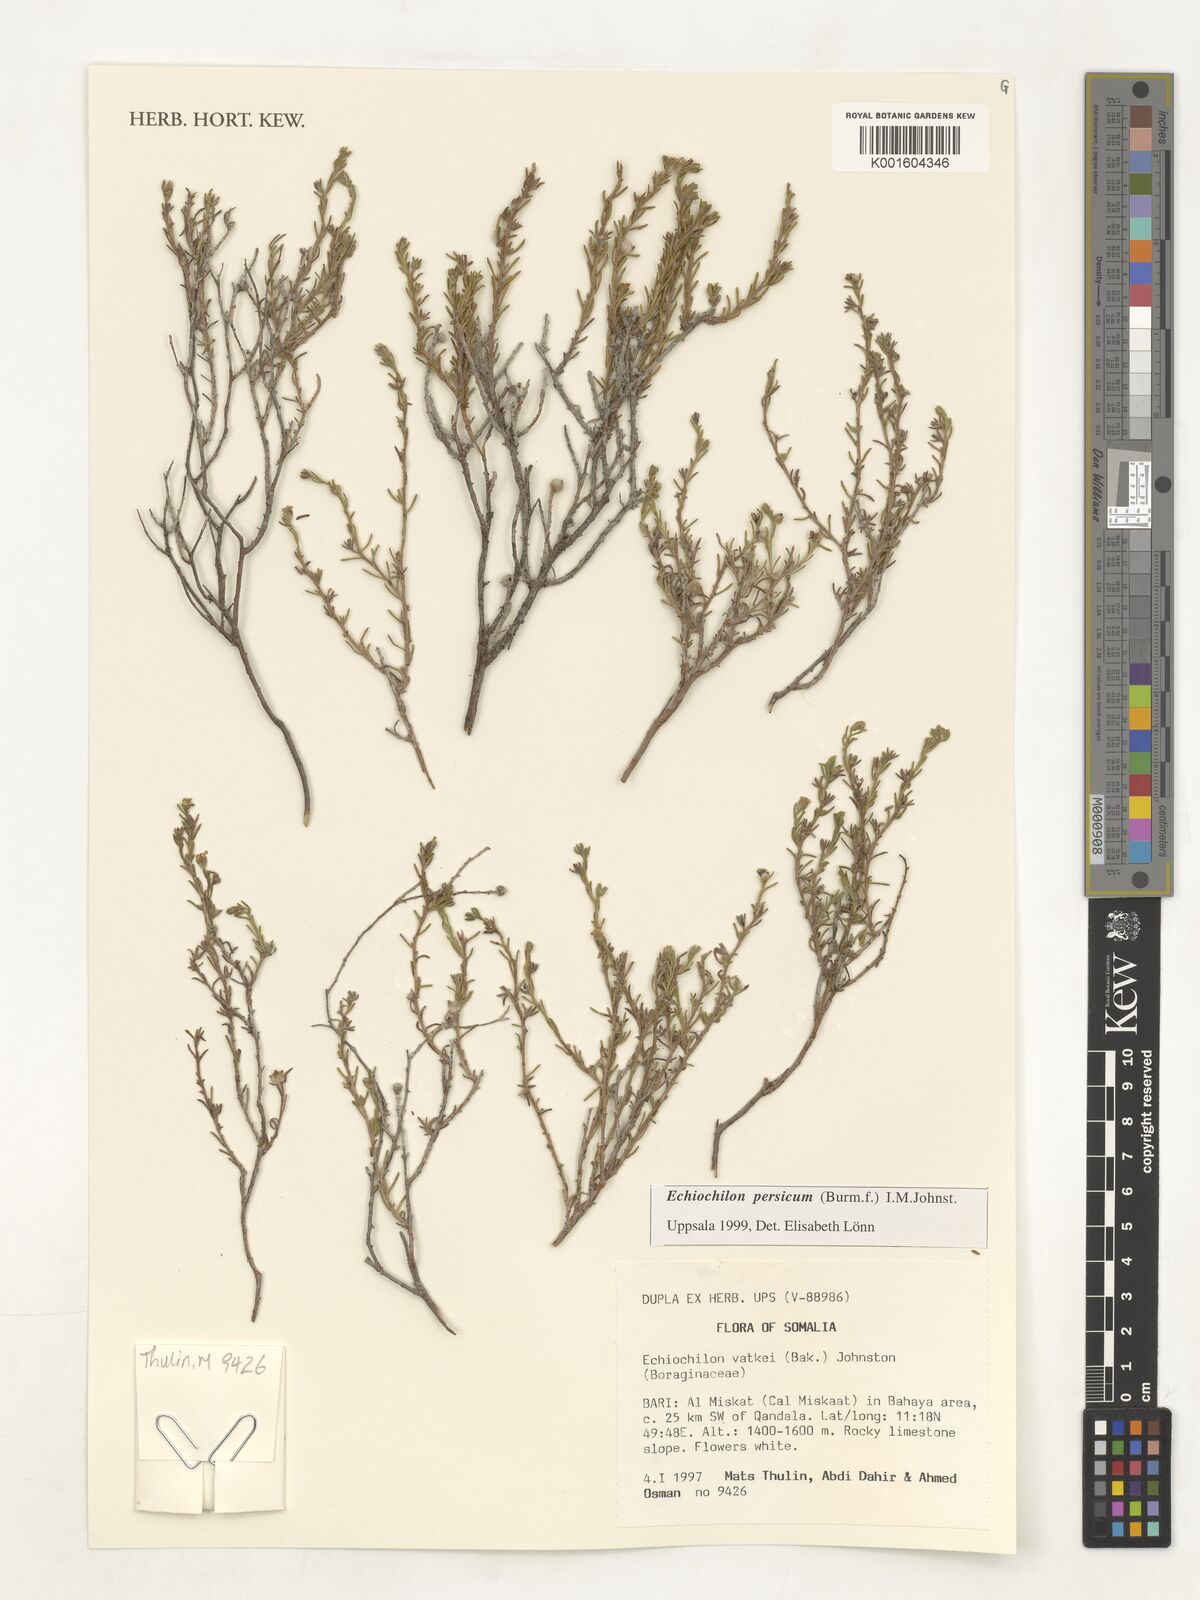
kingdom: Plantae
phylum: Tracheophyta
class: Magnoliopsida
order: Boraginales
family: Boraginaceae
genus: Echiochilon
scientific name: Echiochilon persicum
